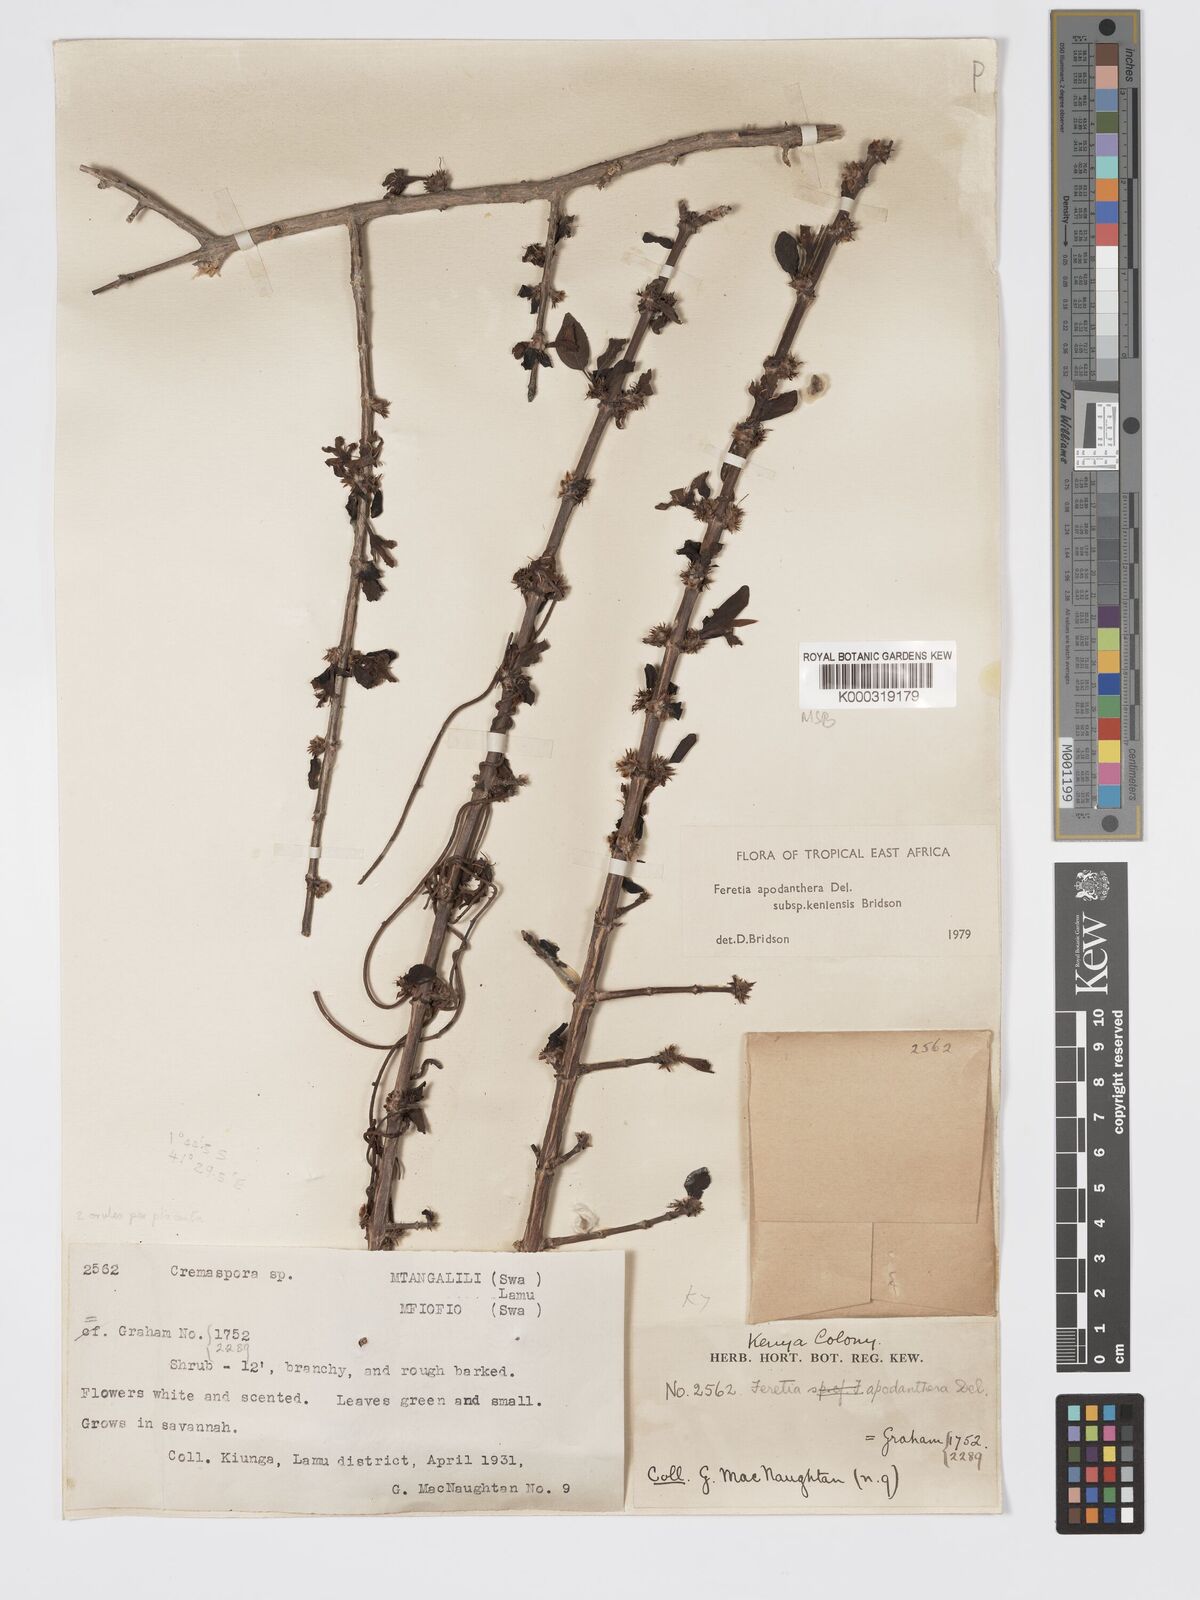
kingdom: Plantae
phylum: Tracheophyta
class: Magnoliopsida
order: Gentianales
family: Rubiaceae
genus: Feretia
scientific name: Feretia apodanthera
